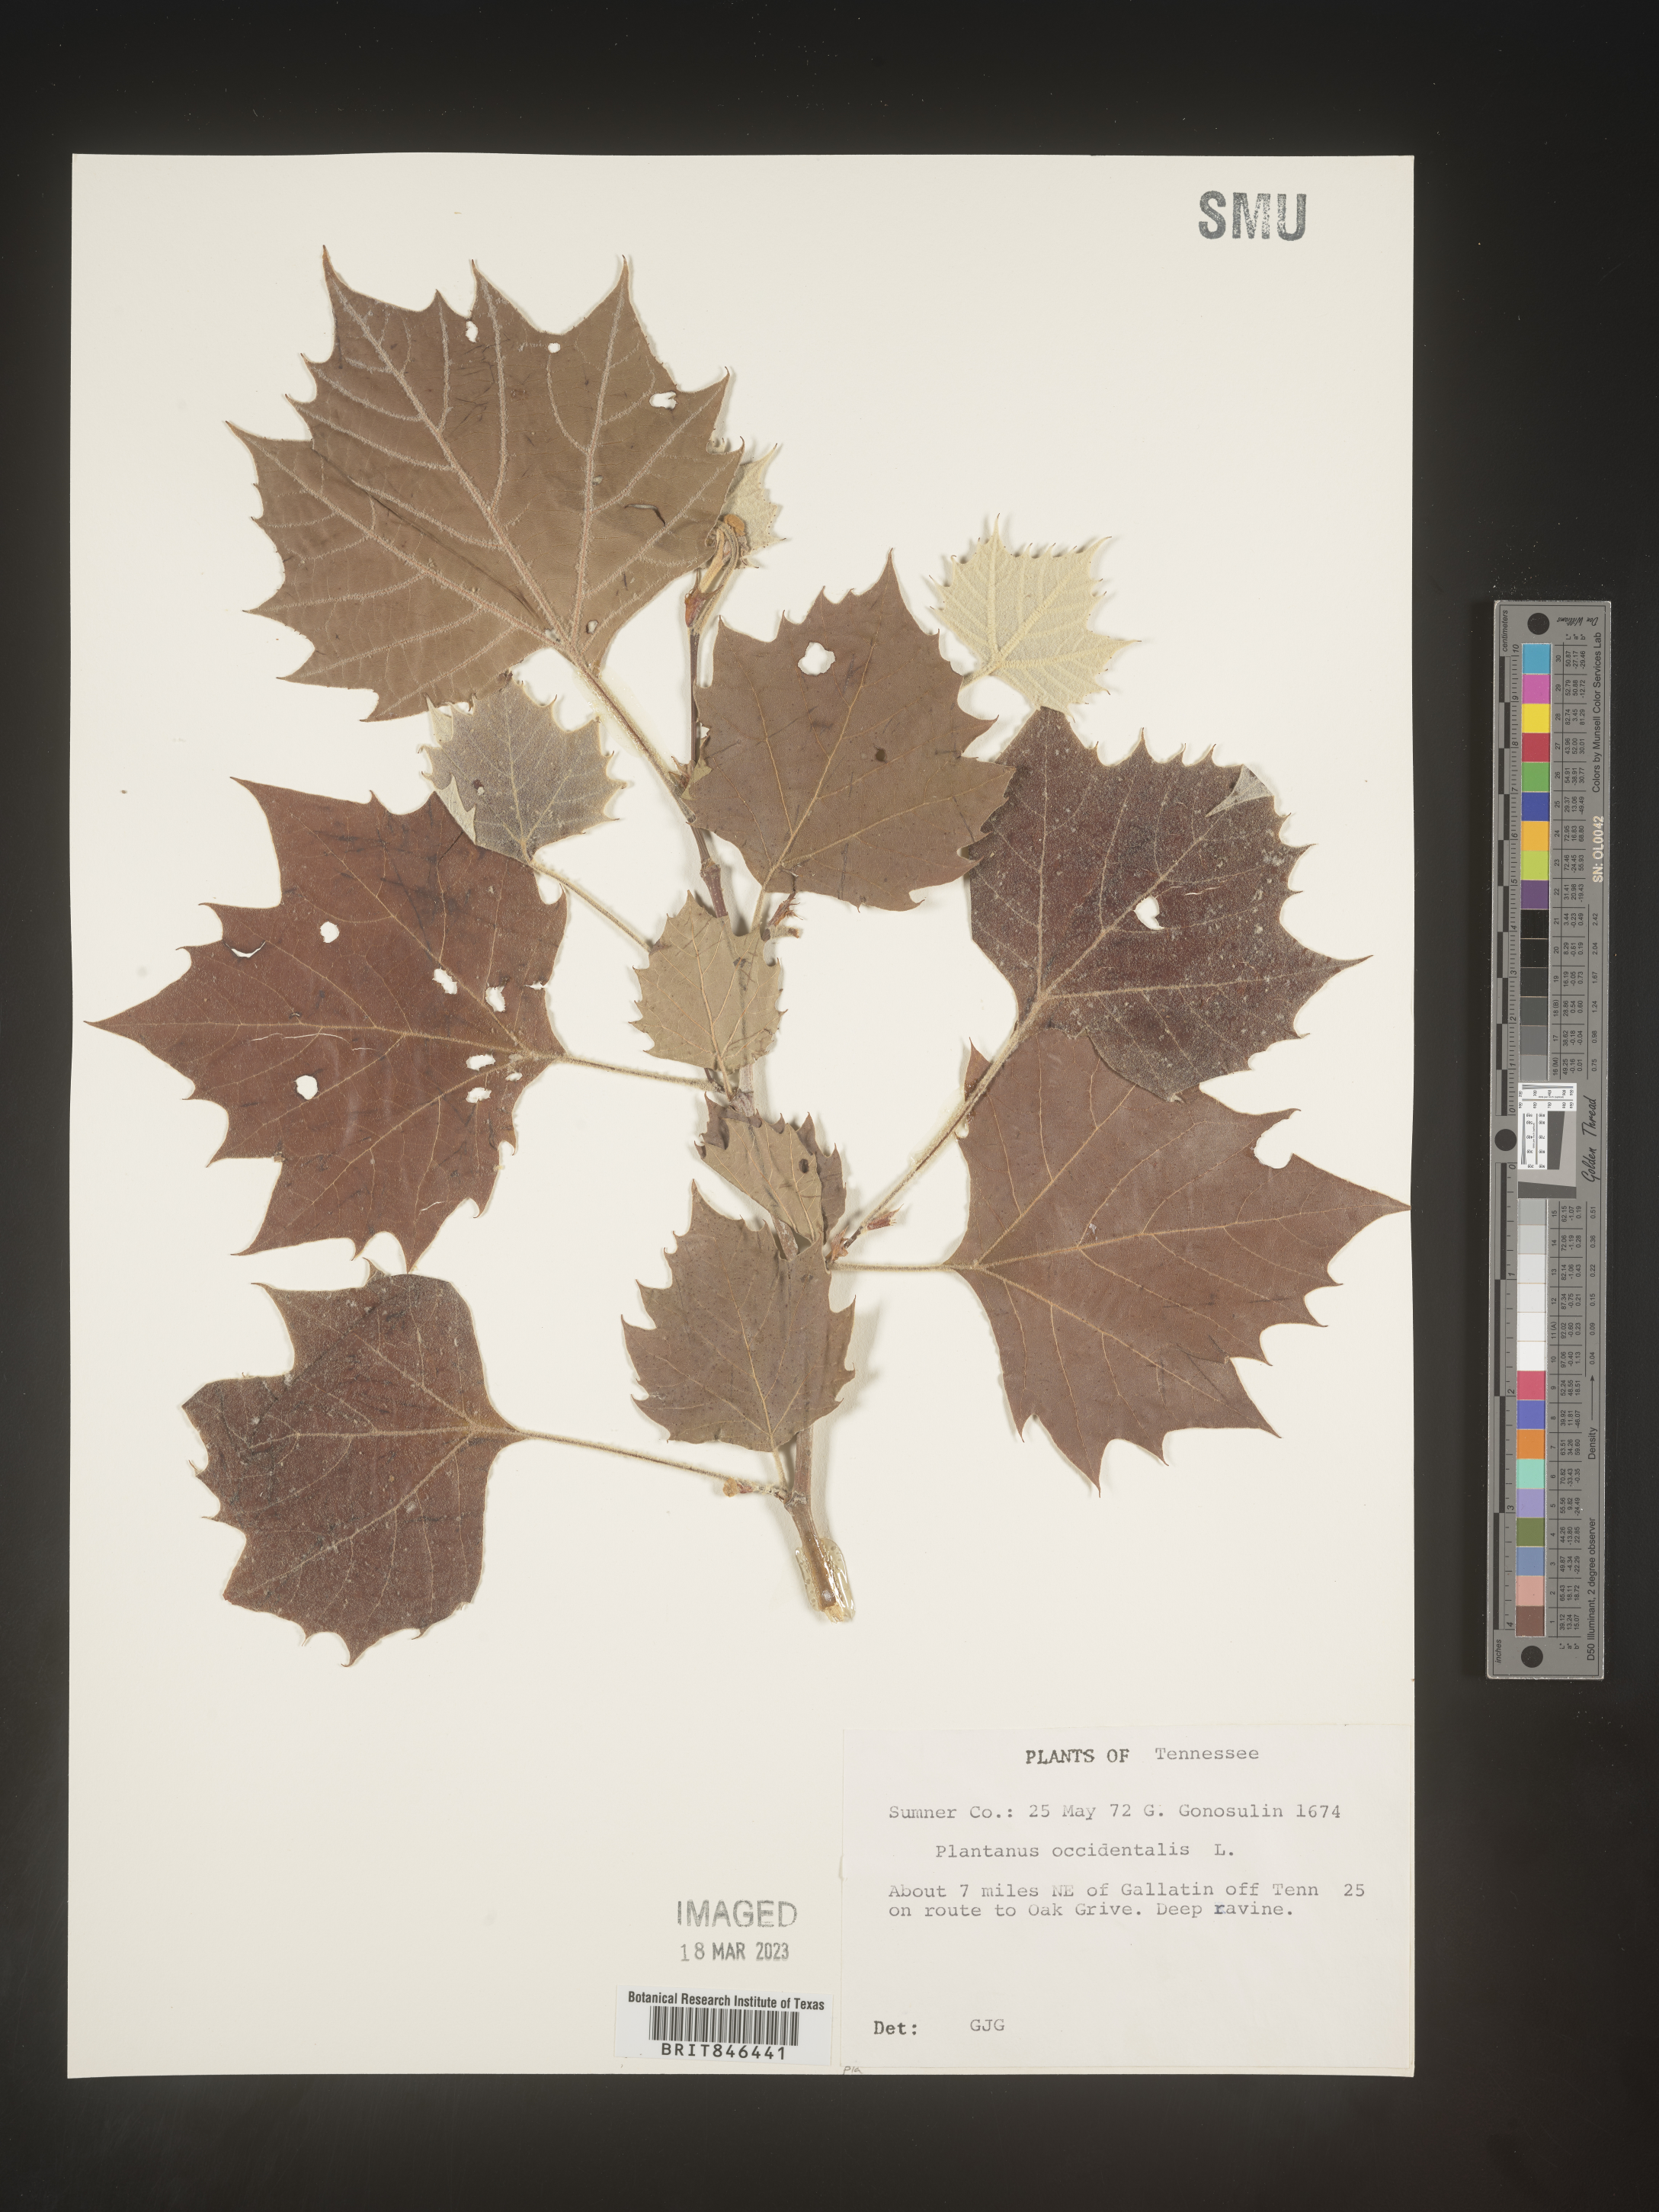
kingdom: Plantae
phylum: Tracheophyta
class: Magnoliopsida
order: Proteales
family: Platanaceae
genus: Platanus
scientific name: Platanus occidentalis
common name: American sycamore
